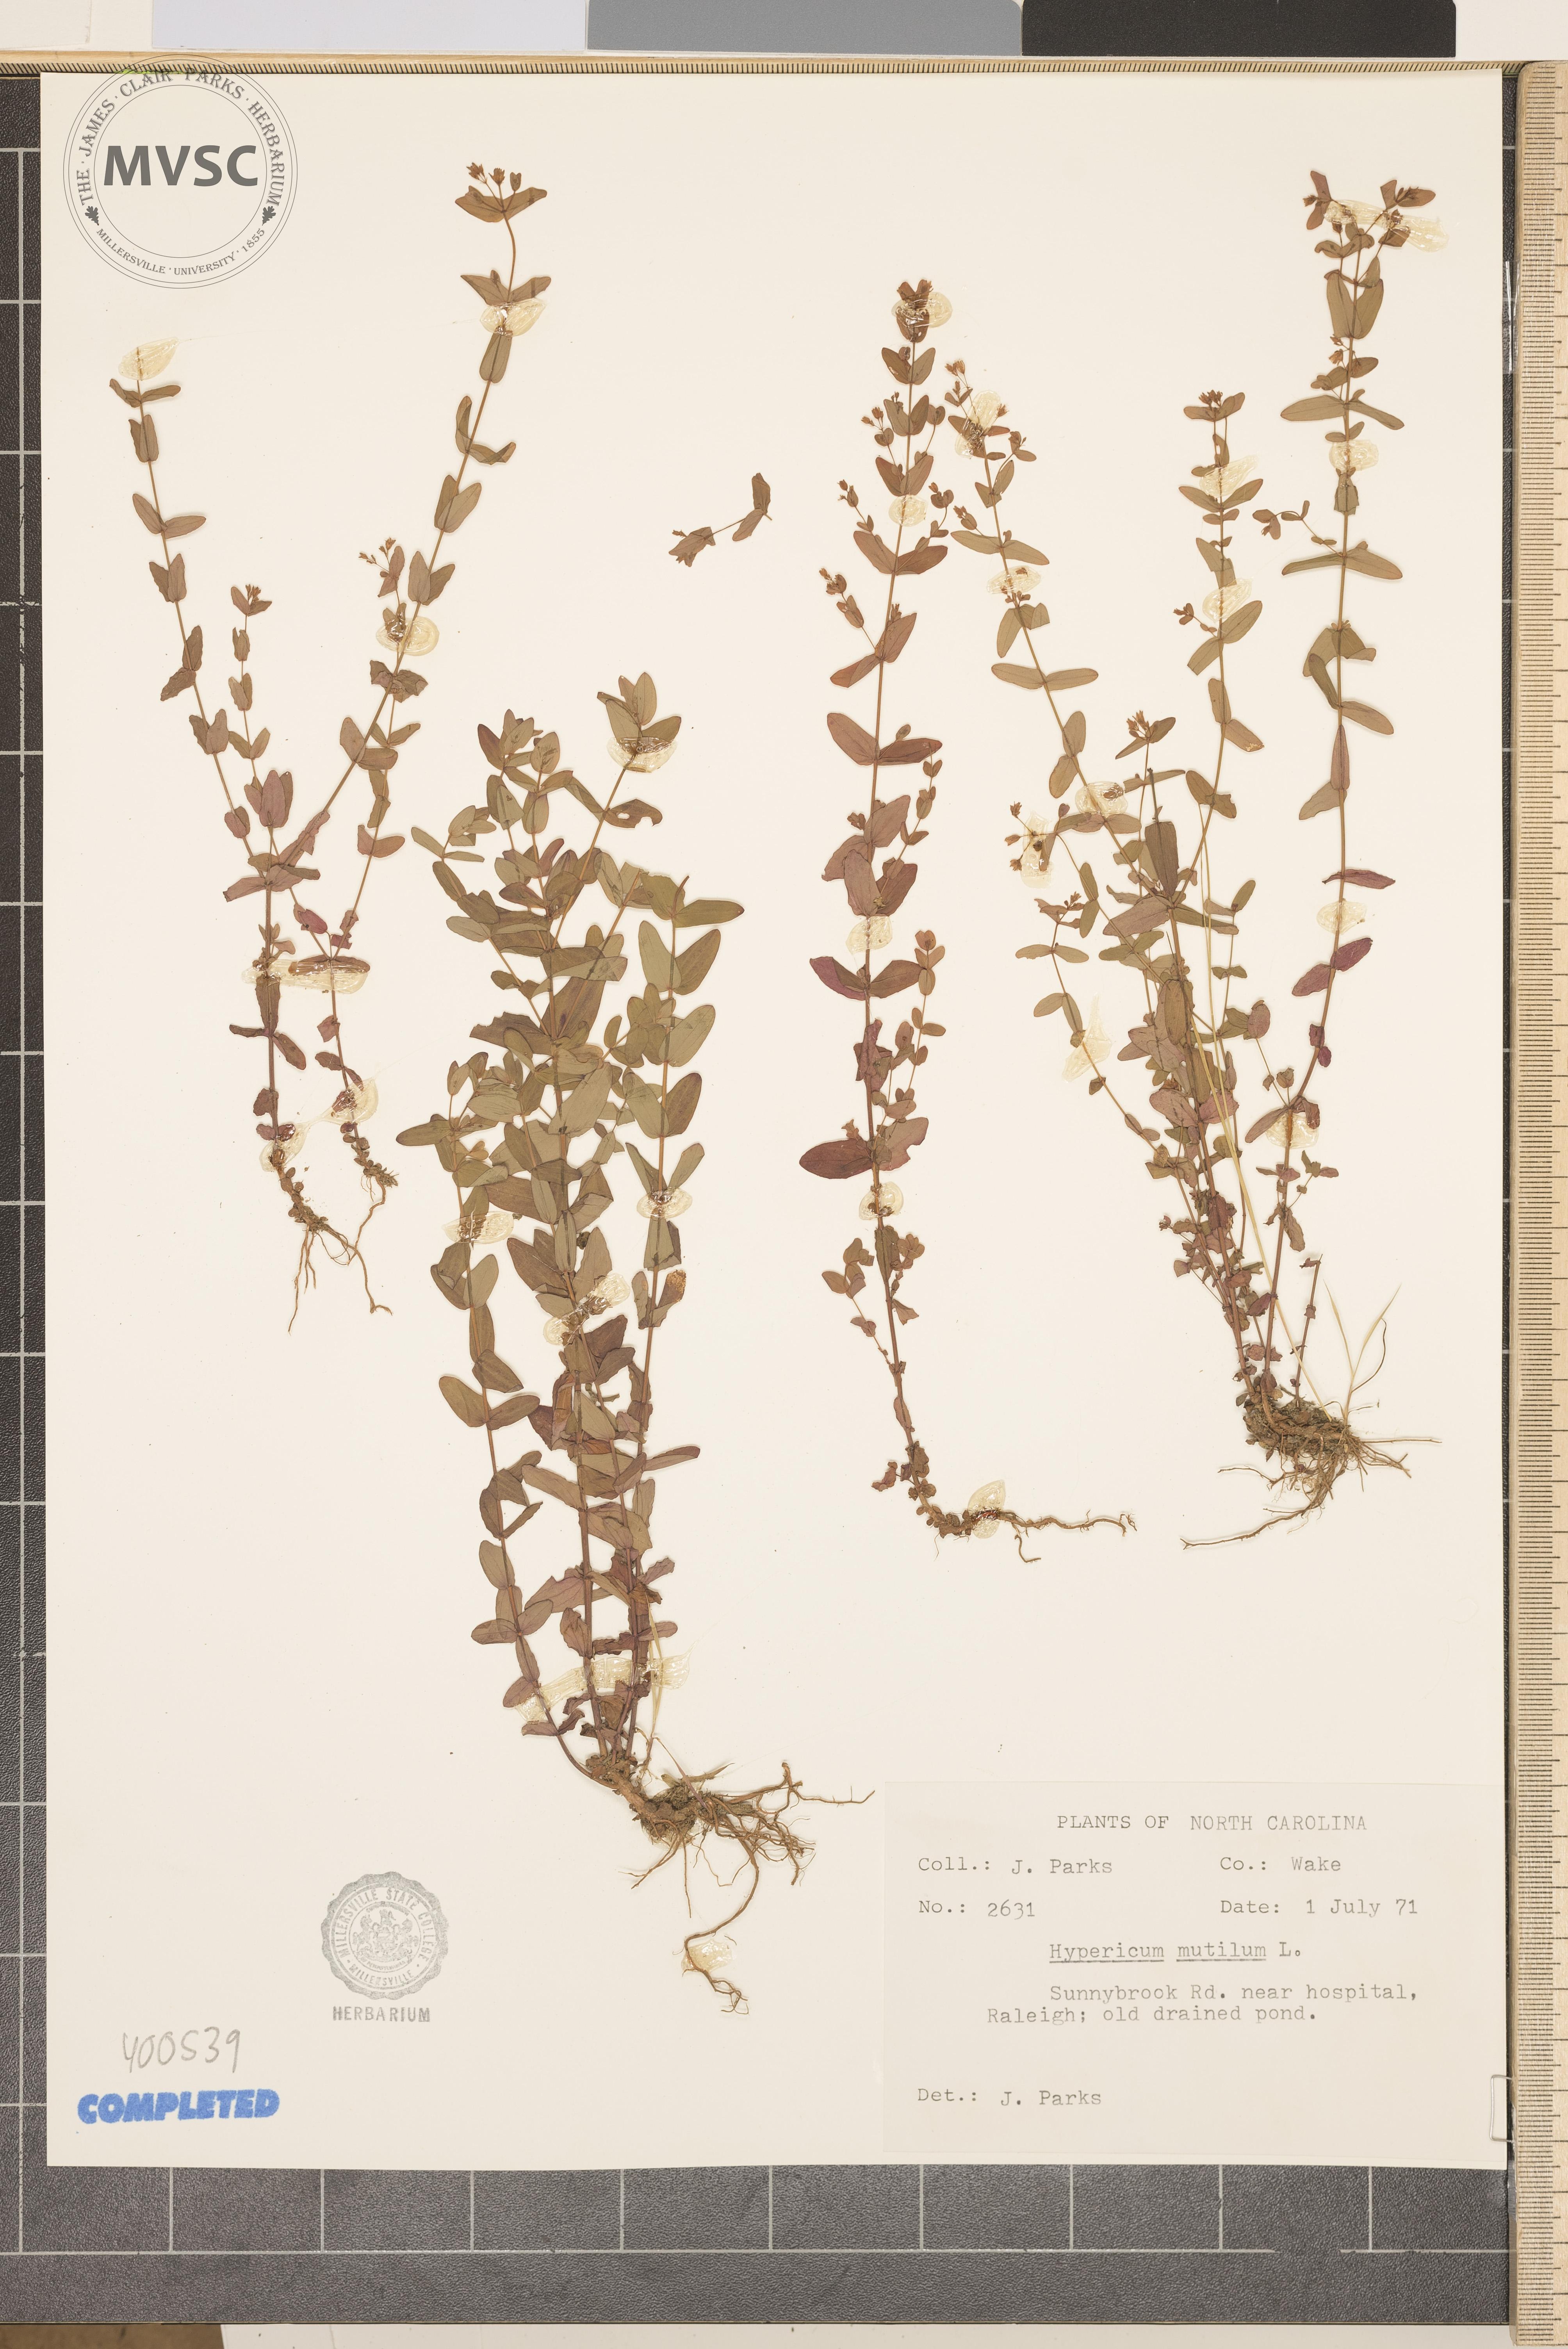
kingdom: Plantae
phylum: Tracheophyta
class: Magnoliopsida
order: Malpighiales
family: Hypericaceae
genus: Hypericum
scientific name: Hypericum mutilum
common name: Dwarf St. John's-wort
